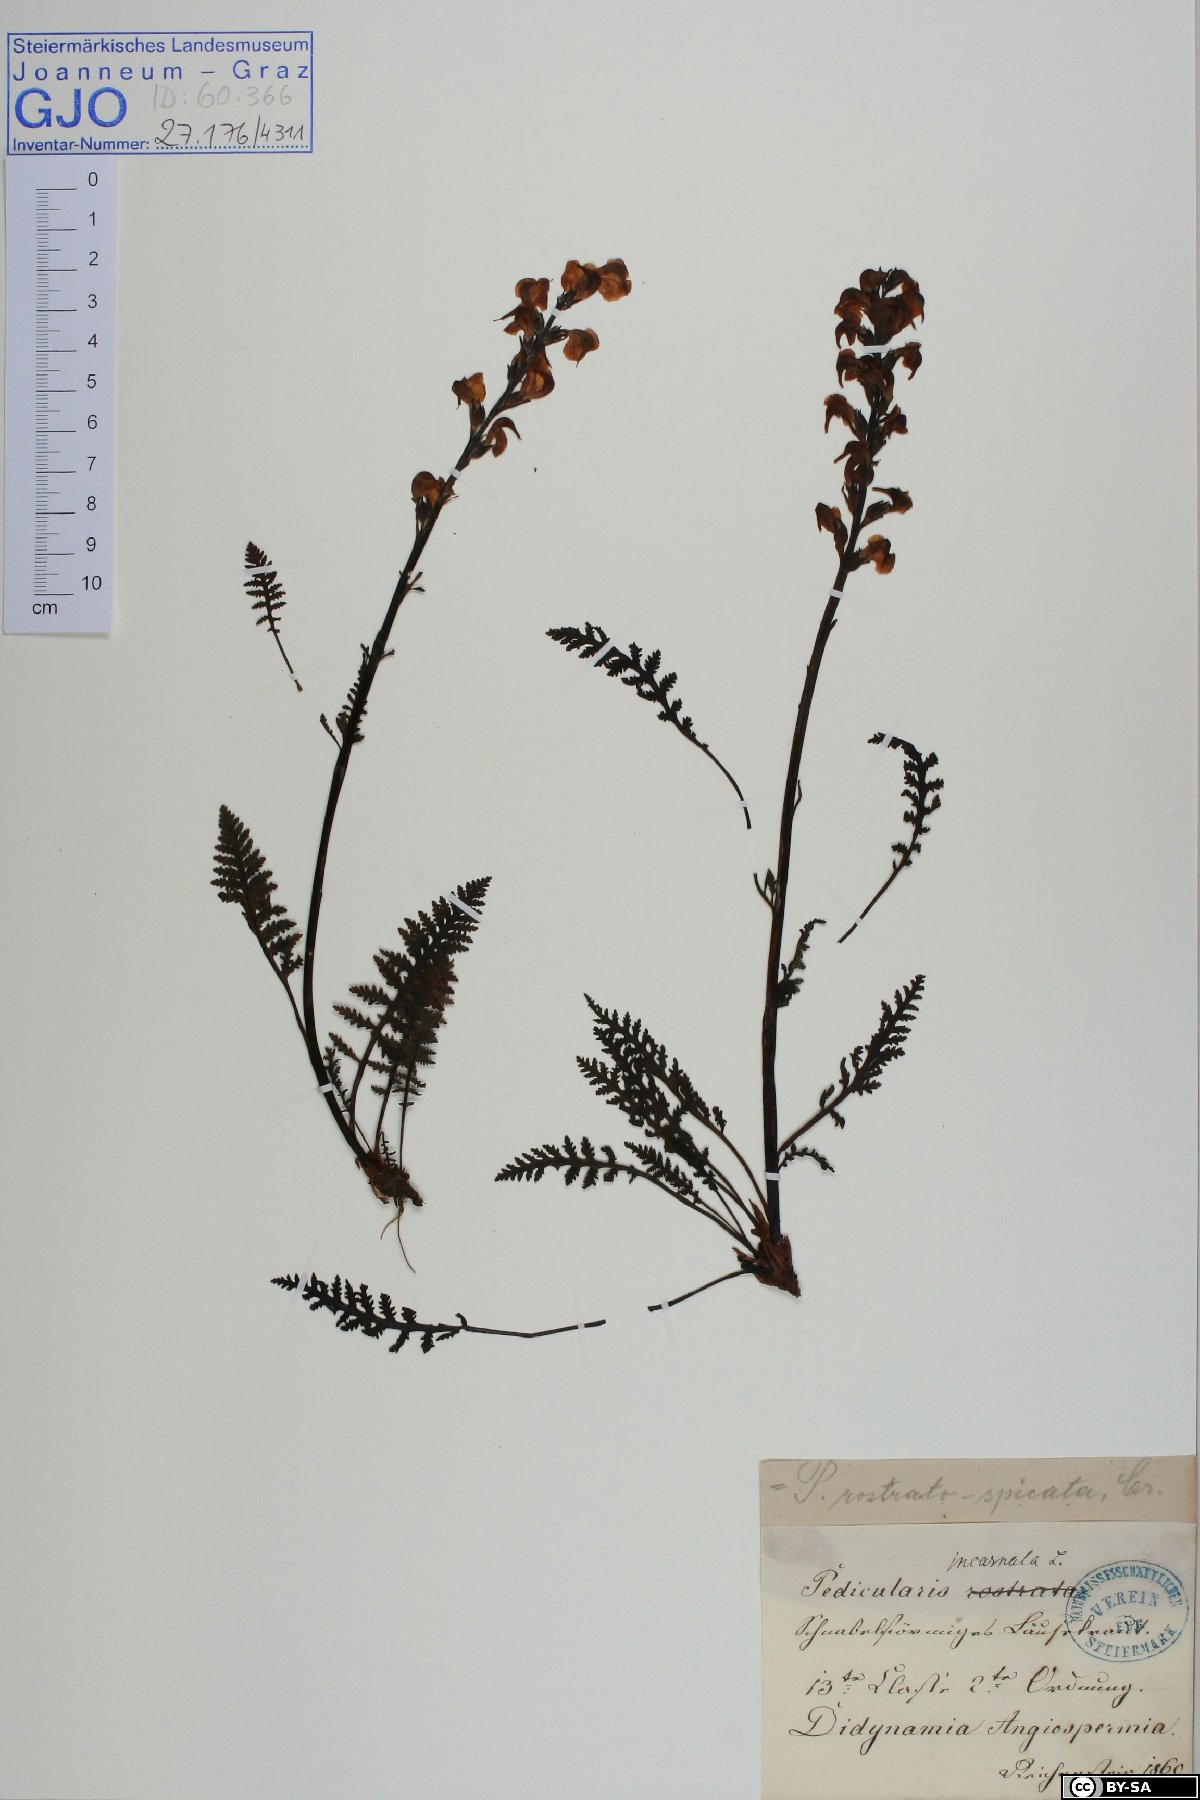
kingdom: Plantae
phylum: Tracheophyta
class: Magnoliopsida
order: Lamiales
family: Orobanchaceae
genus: Pedicularis
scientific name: Pedicularis rostratospicata
